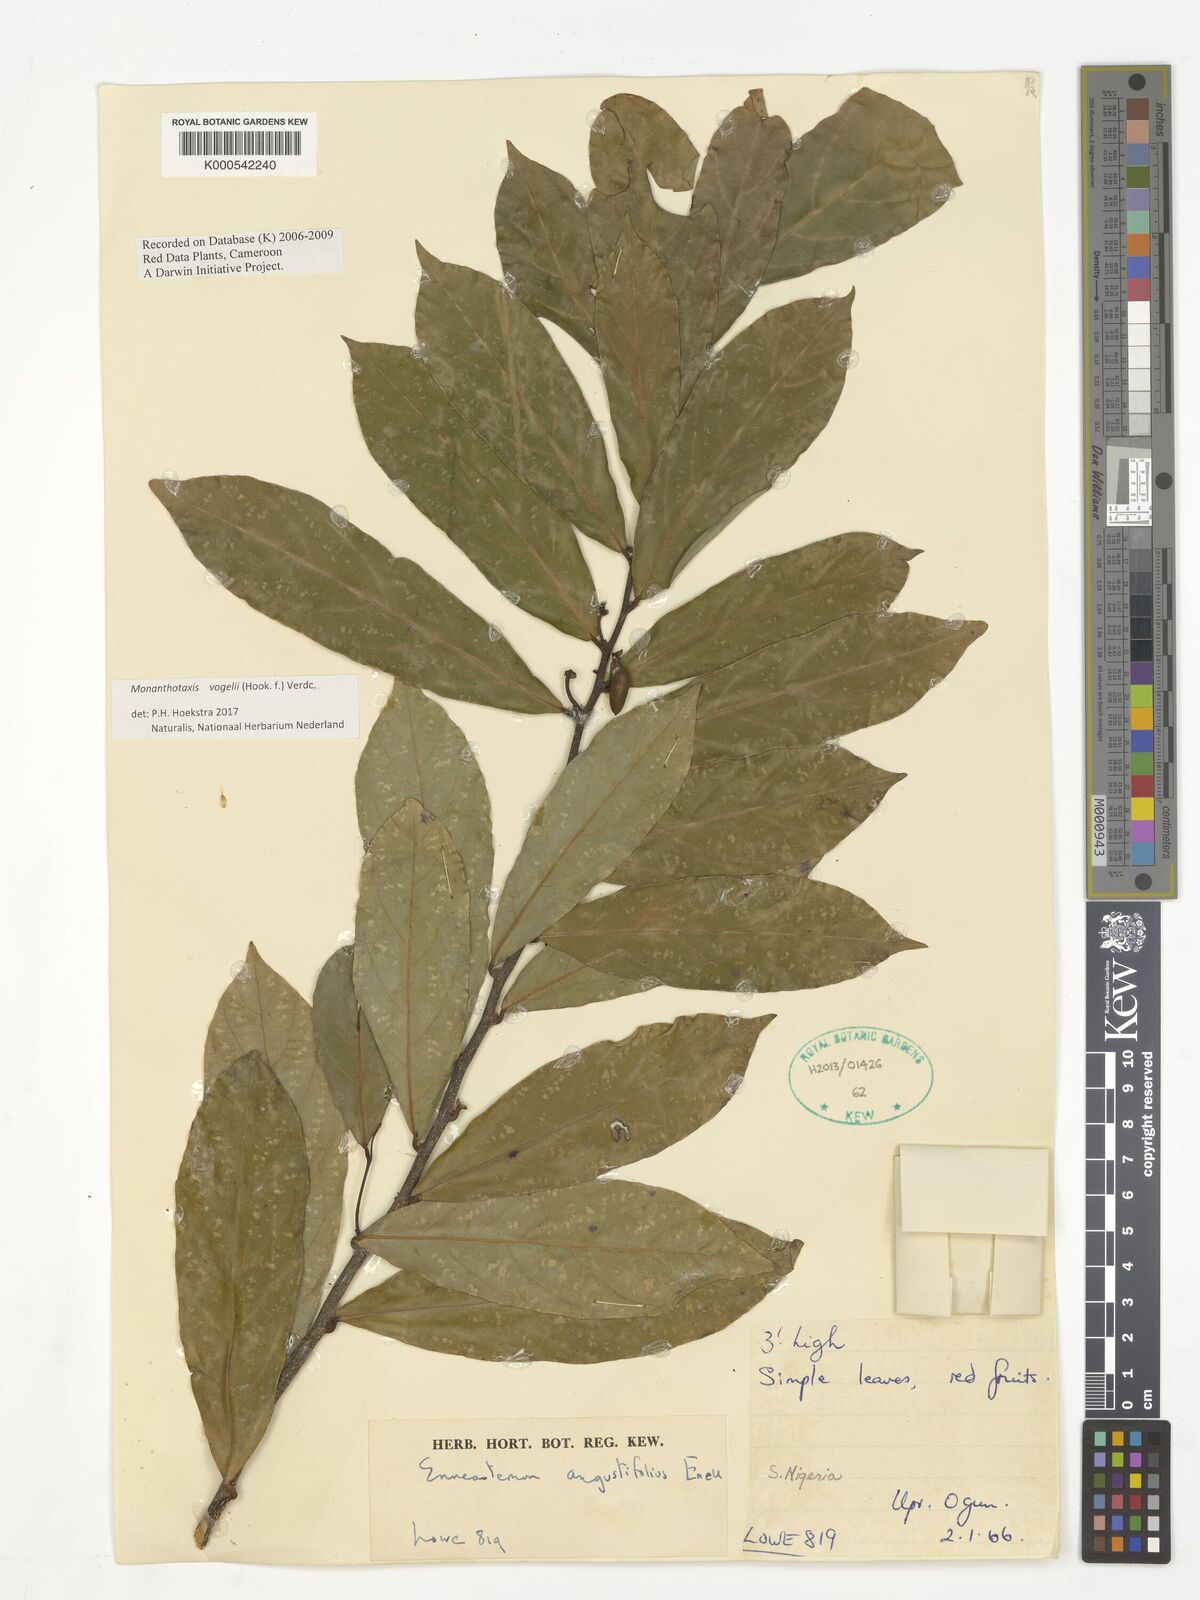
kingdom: Plantae
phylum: Tracheophyta
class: Magnoliopsida
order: Magnoliales
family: Annonaceae
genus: Monanthotaxis
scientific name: Monanthotaxis vogelii
